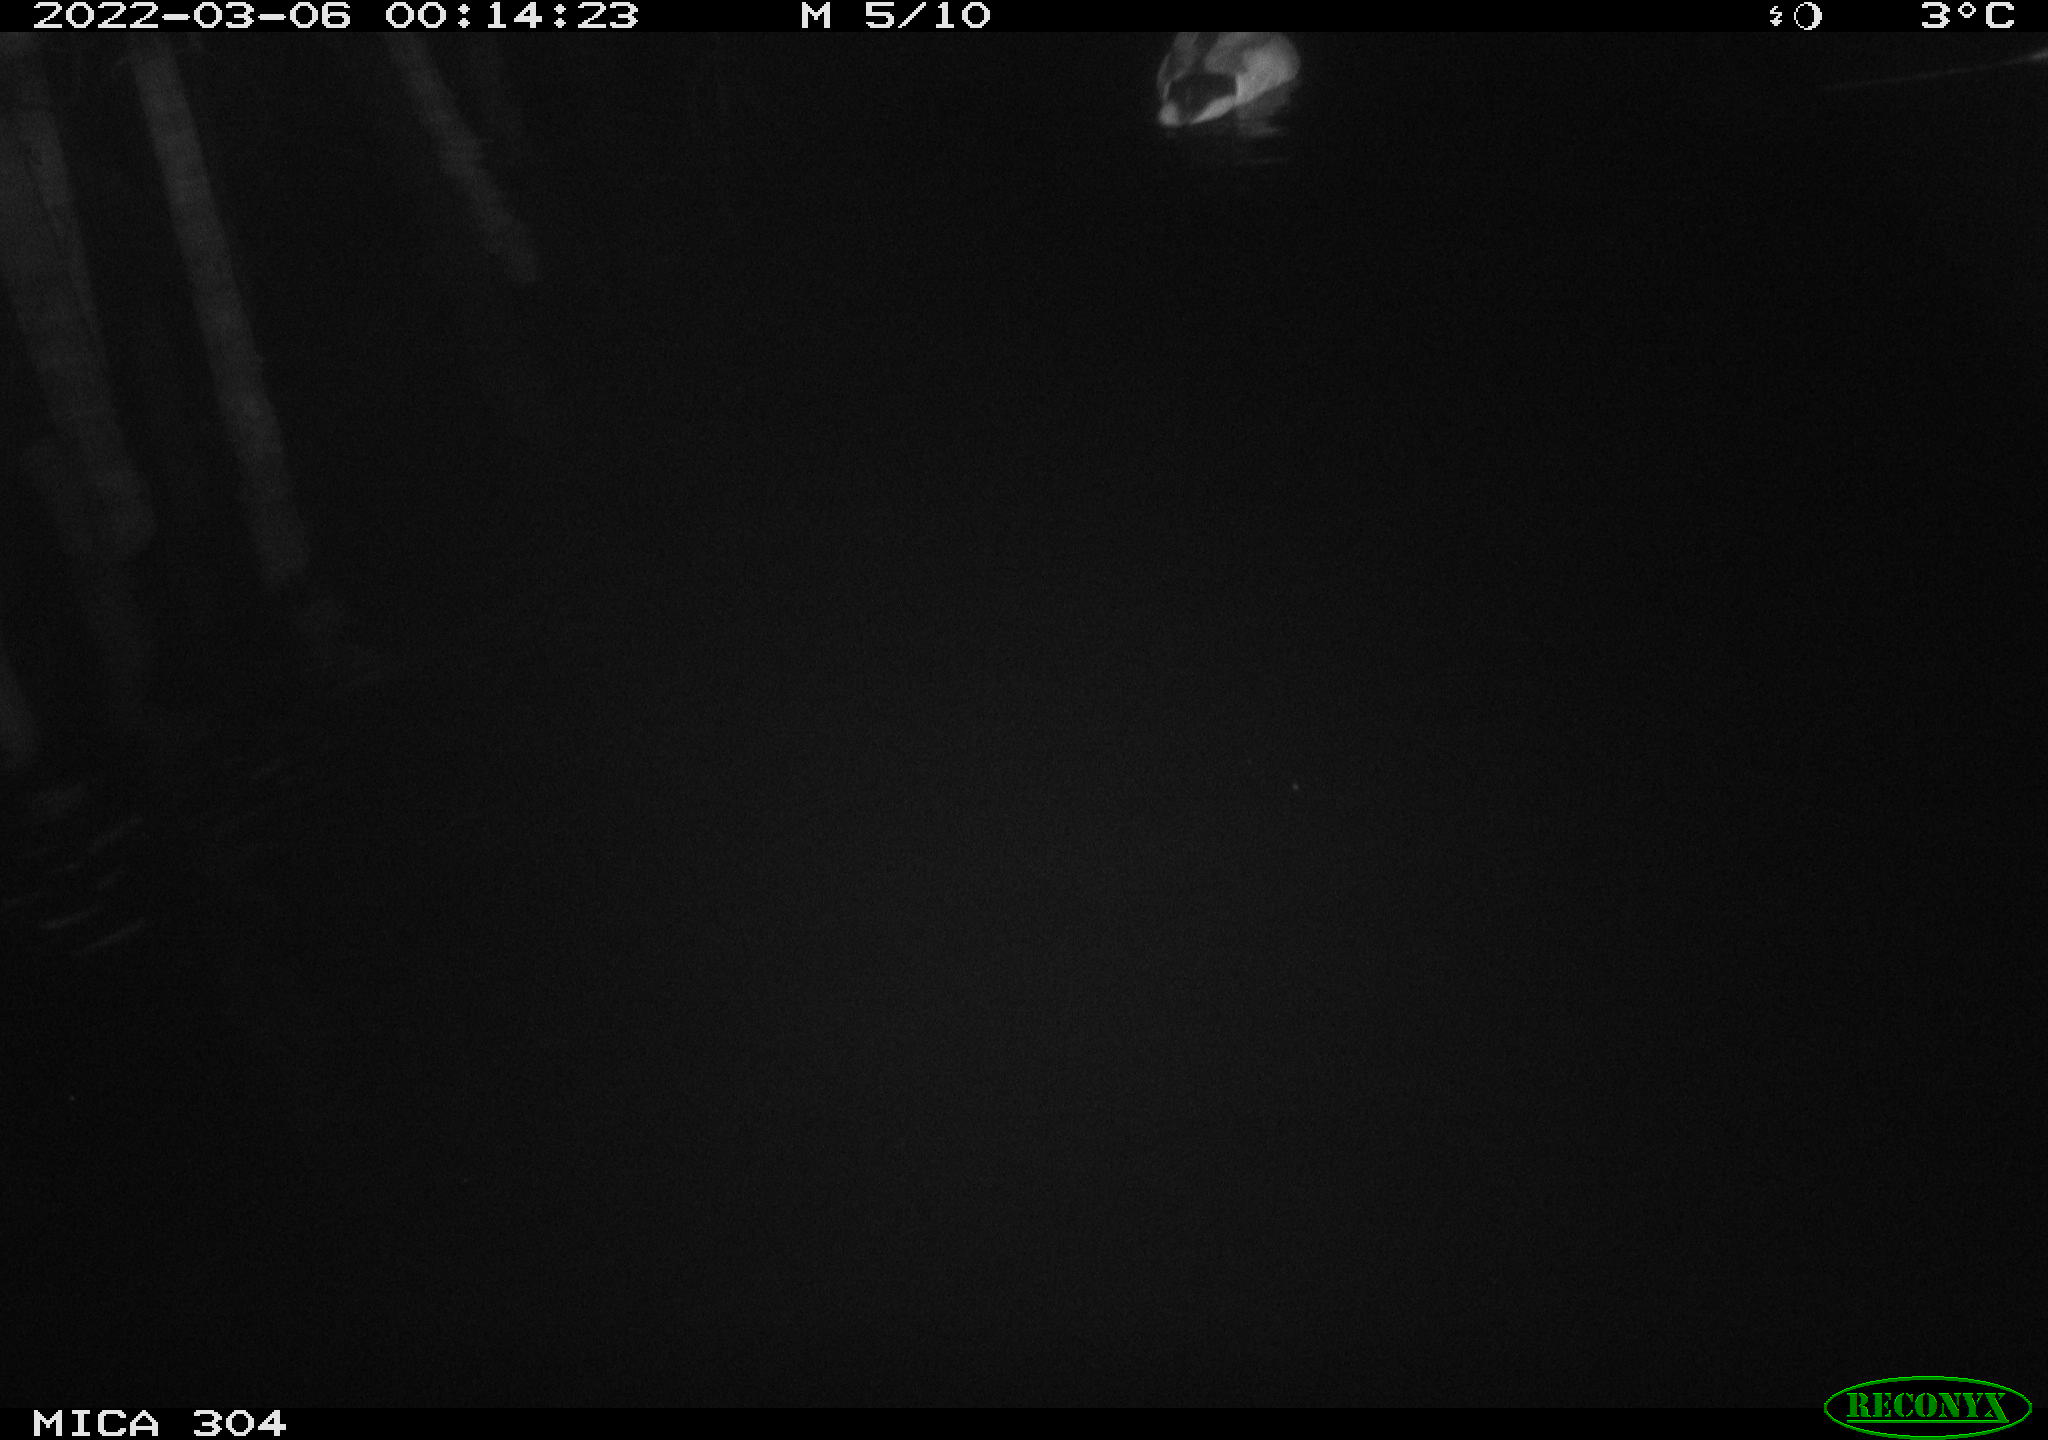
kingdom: Animalia
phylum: Chordata
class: Aves
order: Anseriformes
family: Anatidae
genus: Anas
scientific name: Anas platyrhynchos
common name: Mallard
